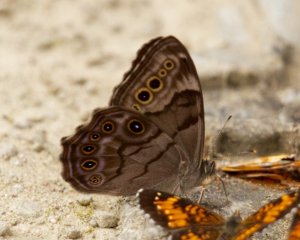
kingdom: Animalia
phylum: Arthropoda
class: Insecta
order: Lepidoptera
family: Nymphalidae
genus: Lethe
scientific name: Lethe anthedon
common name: Northern Pearly-Eye
